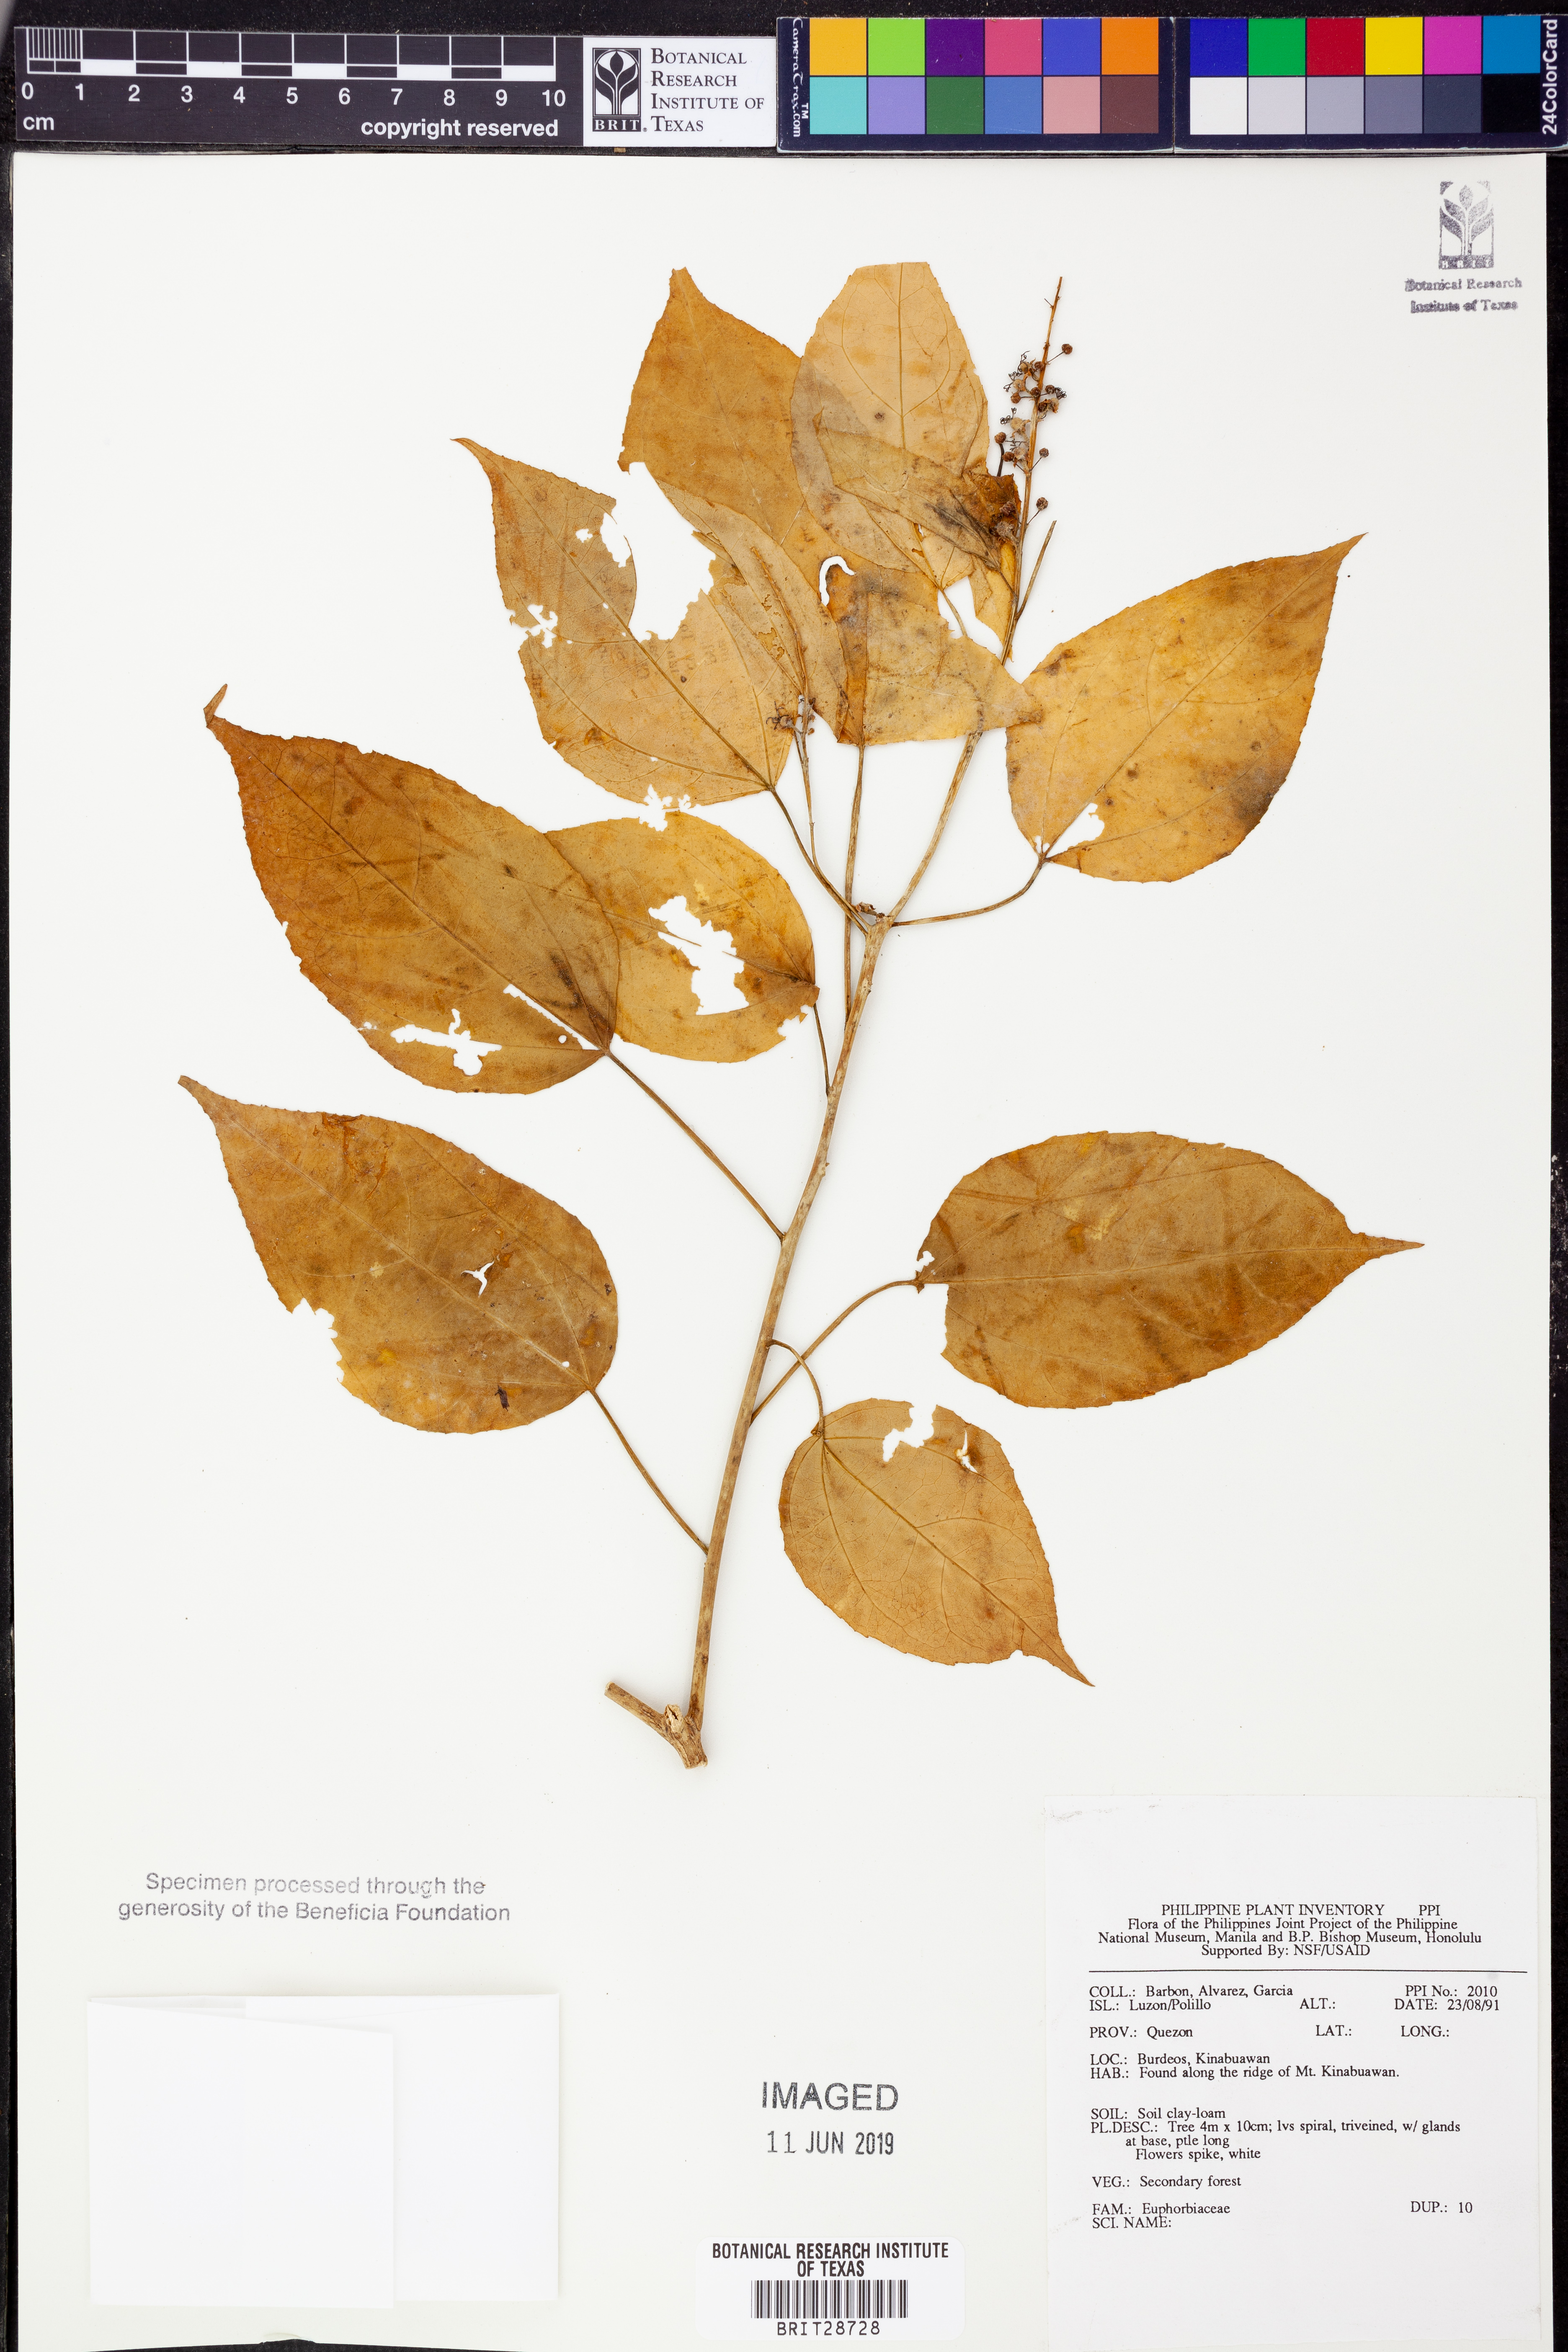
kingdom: Plantae
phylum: Tracheophyta
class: Magnoliopsida
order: Malpighiales
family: Euphorbiaceae
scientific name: Euphorbiaceae
